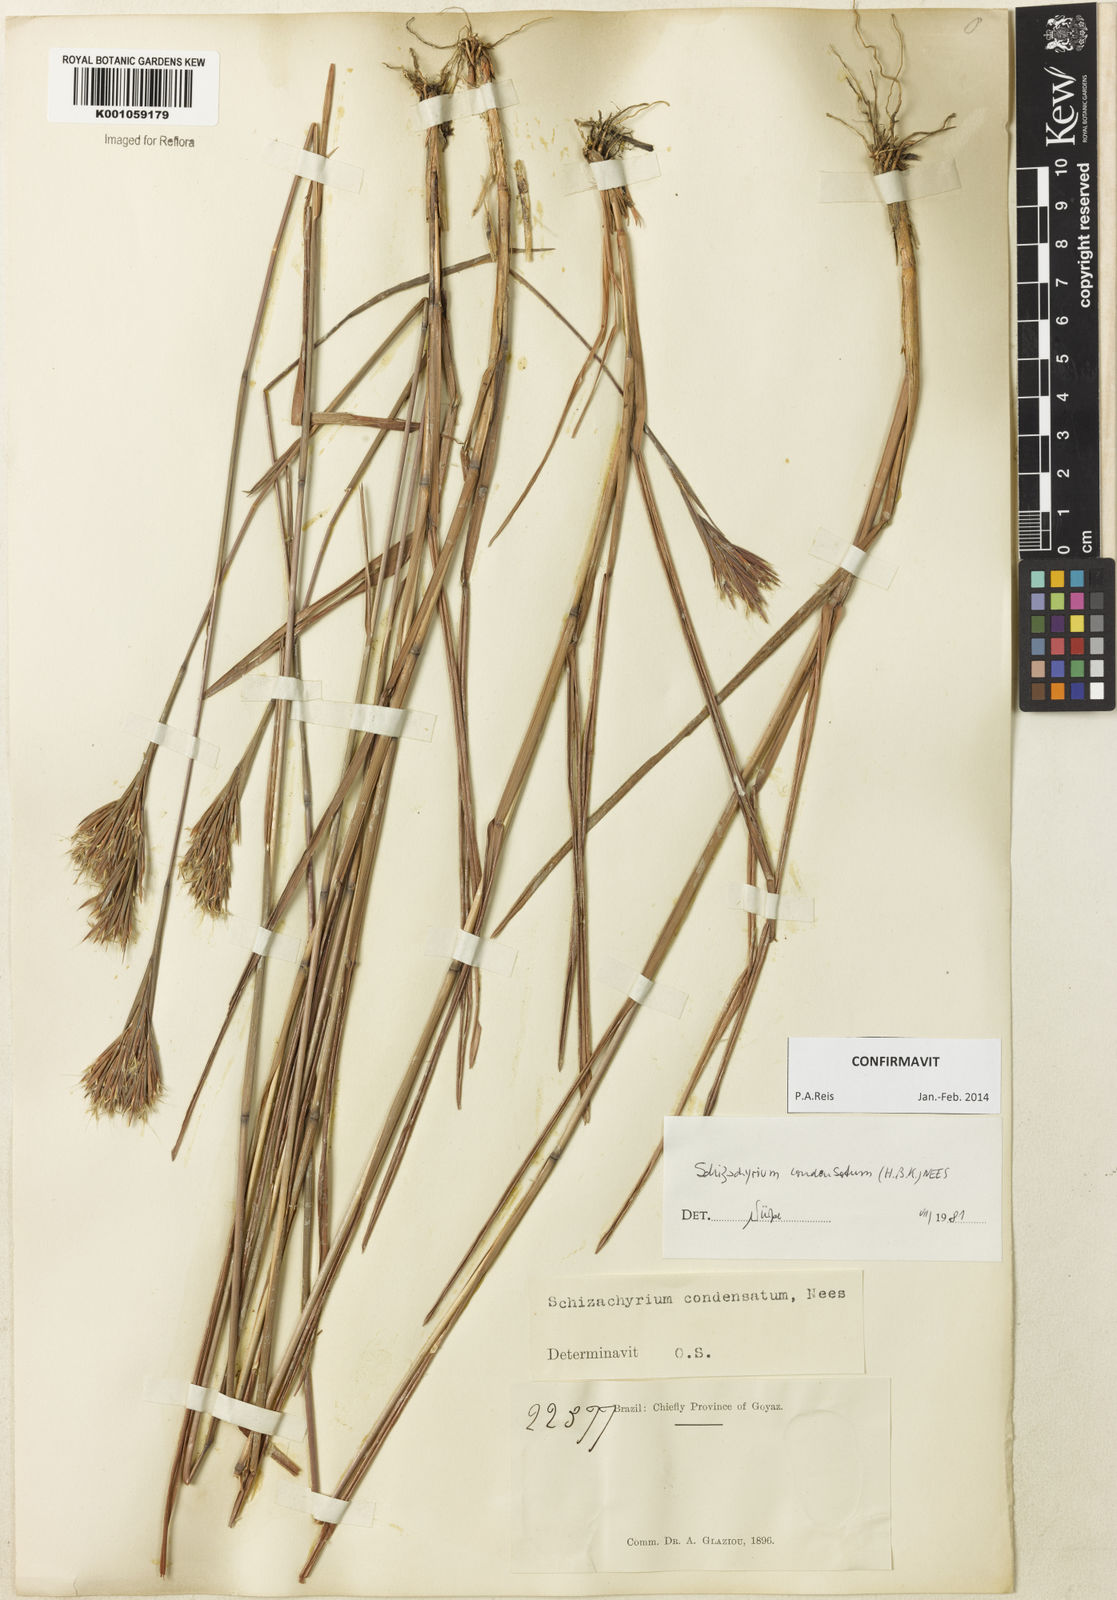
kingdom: Plantae
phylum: Tracheophyta
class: Liliopsida
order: Poales
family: Poaceae
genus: Schizachyrium
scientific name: Schizachyrium condensatum
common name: Bush beardgrass
